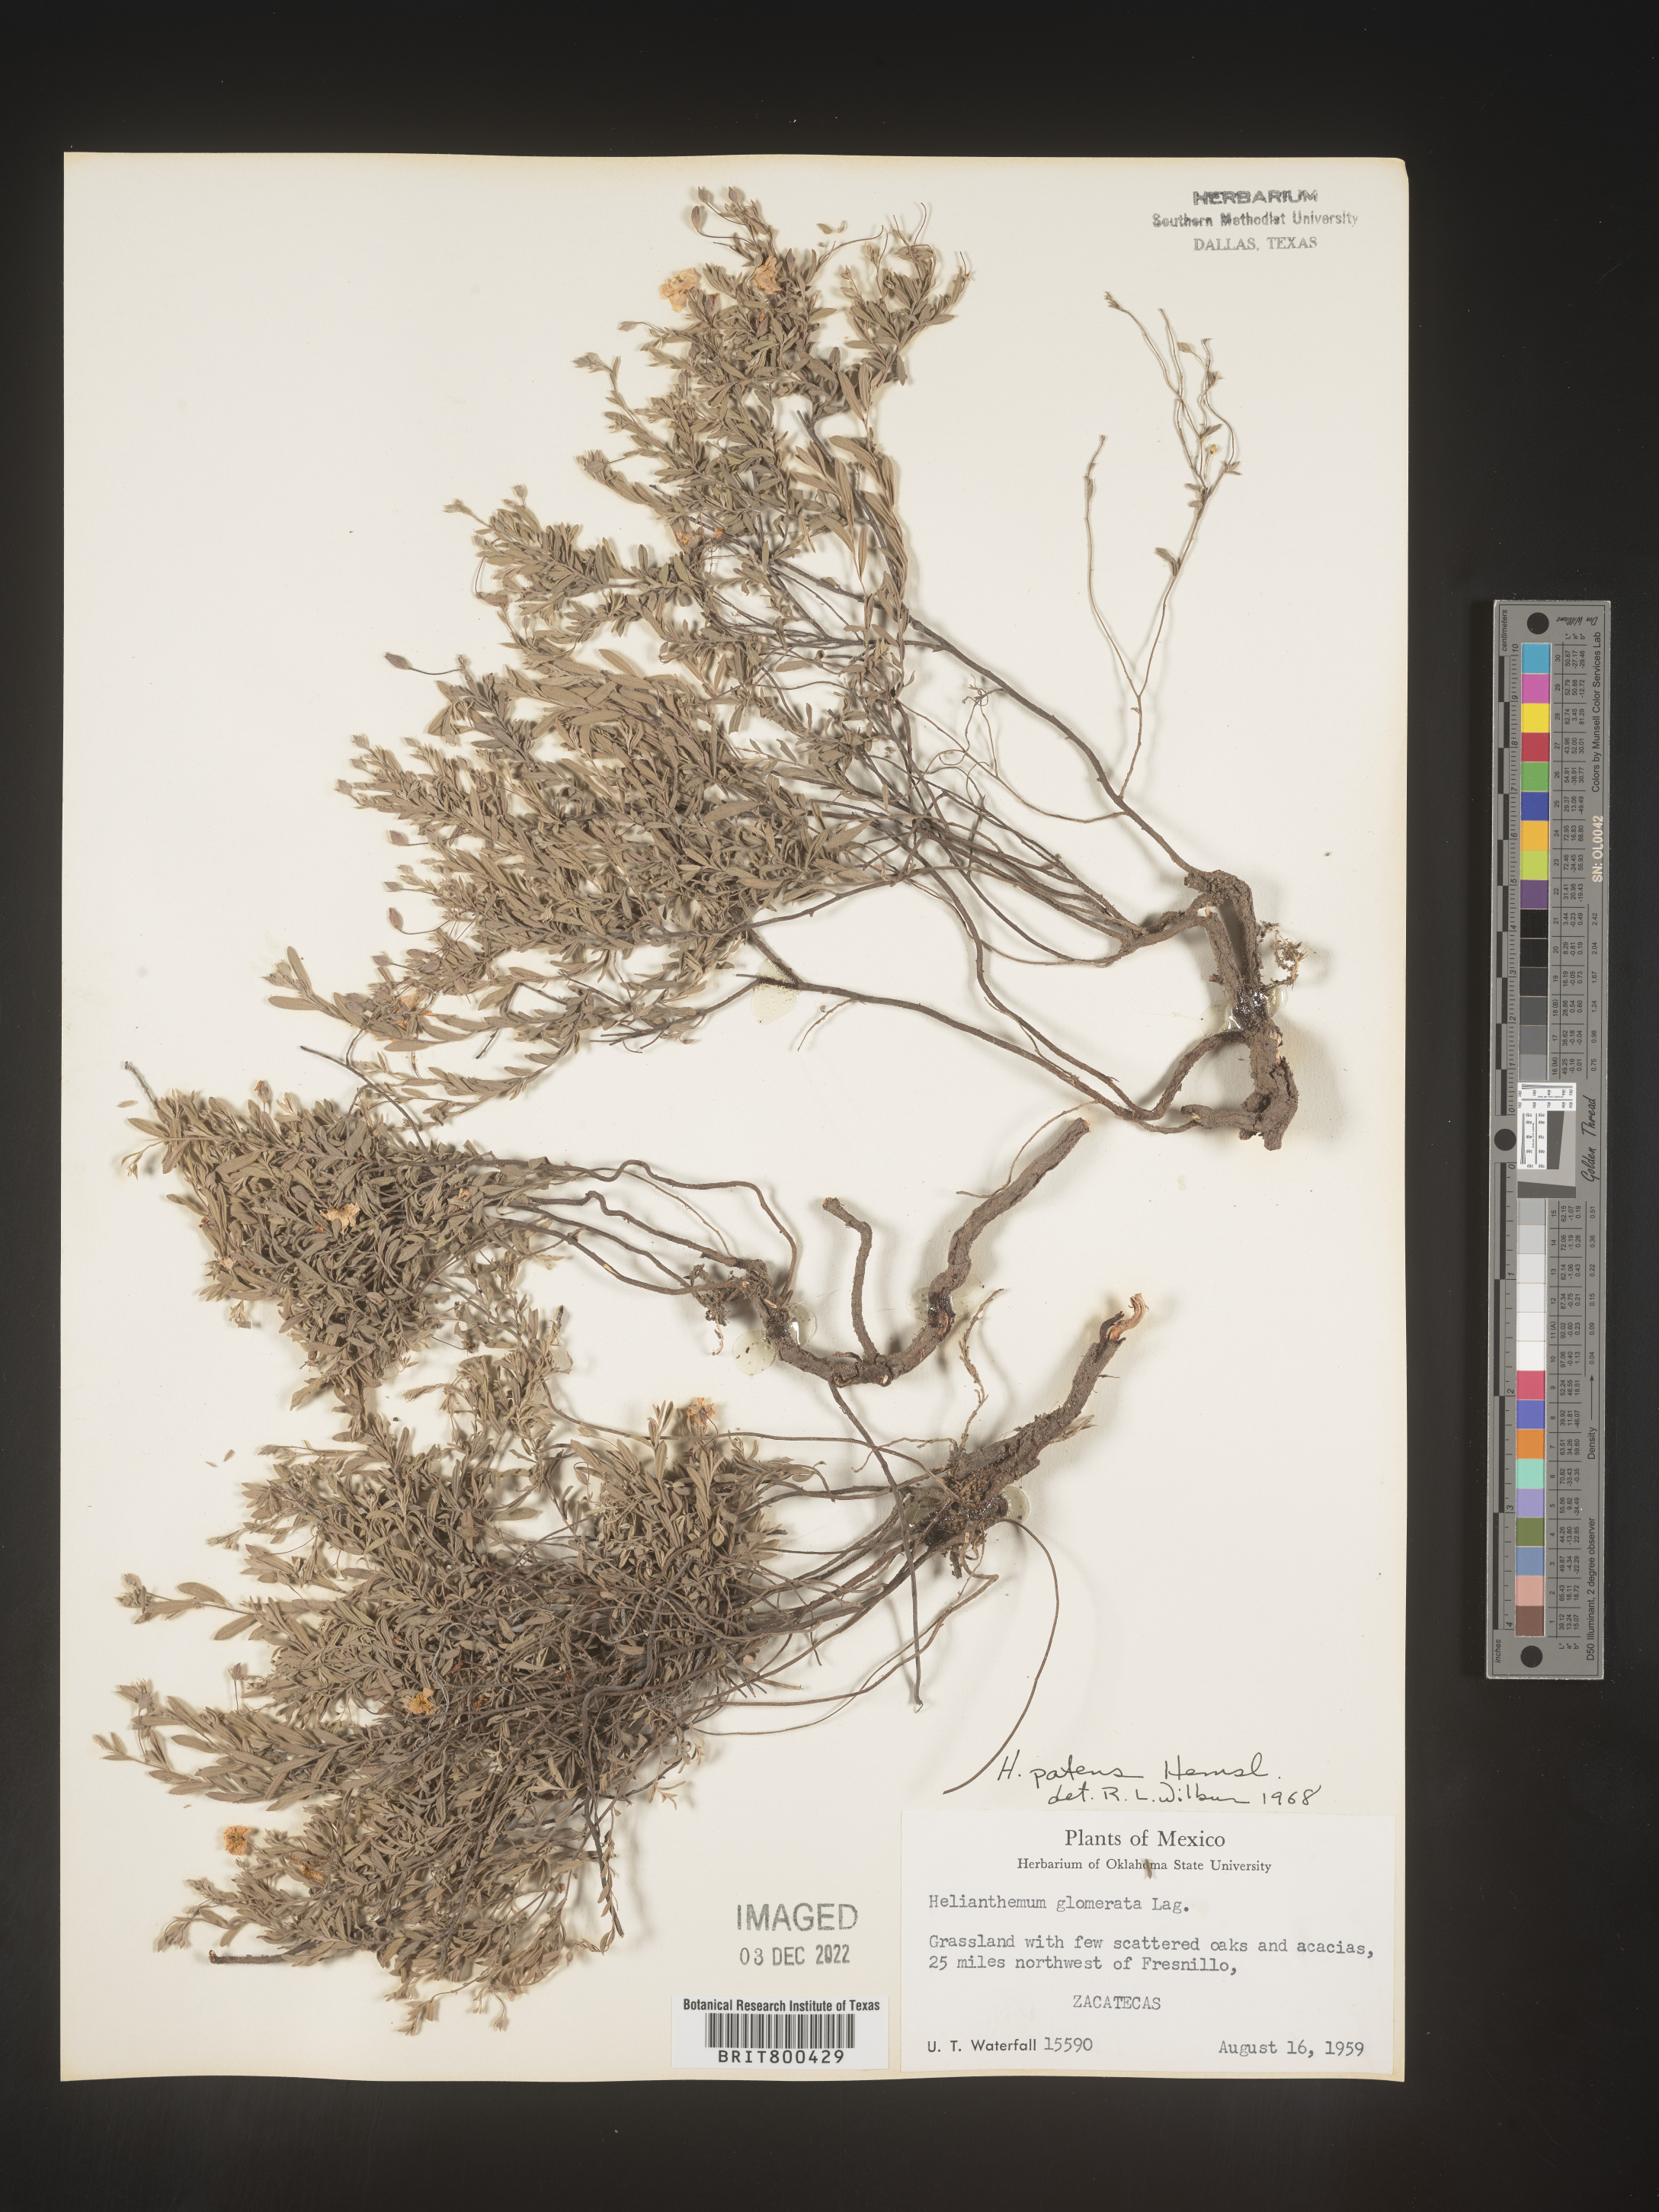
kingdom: Plantae
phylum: Tracheophyta
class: Magnoliopsida
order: Malvales
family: Cistaceae
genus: Helianthemum
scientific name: Helianthemum
